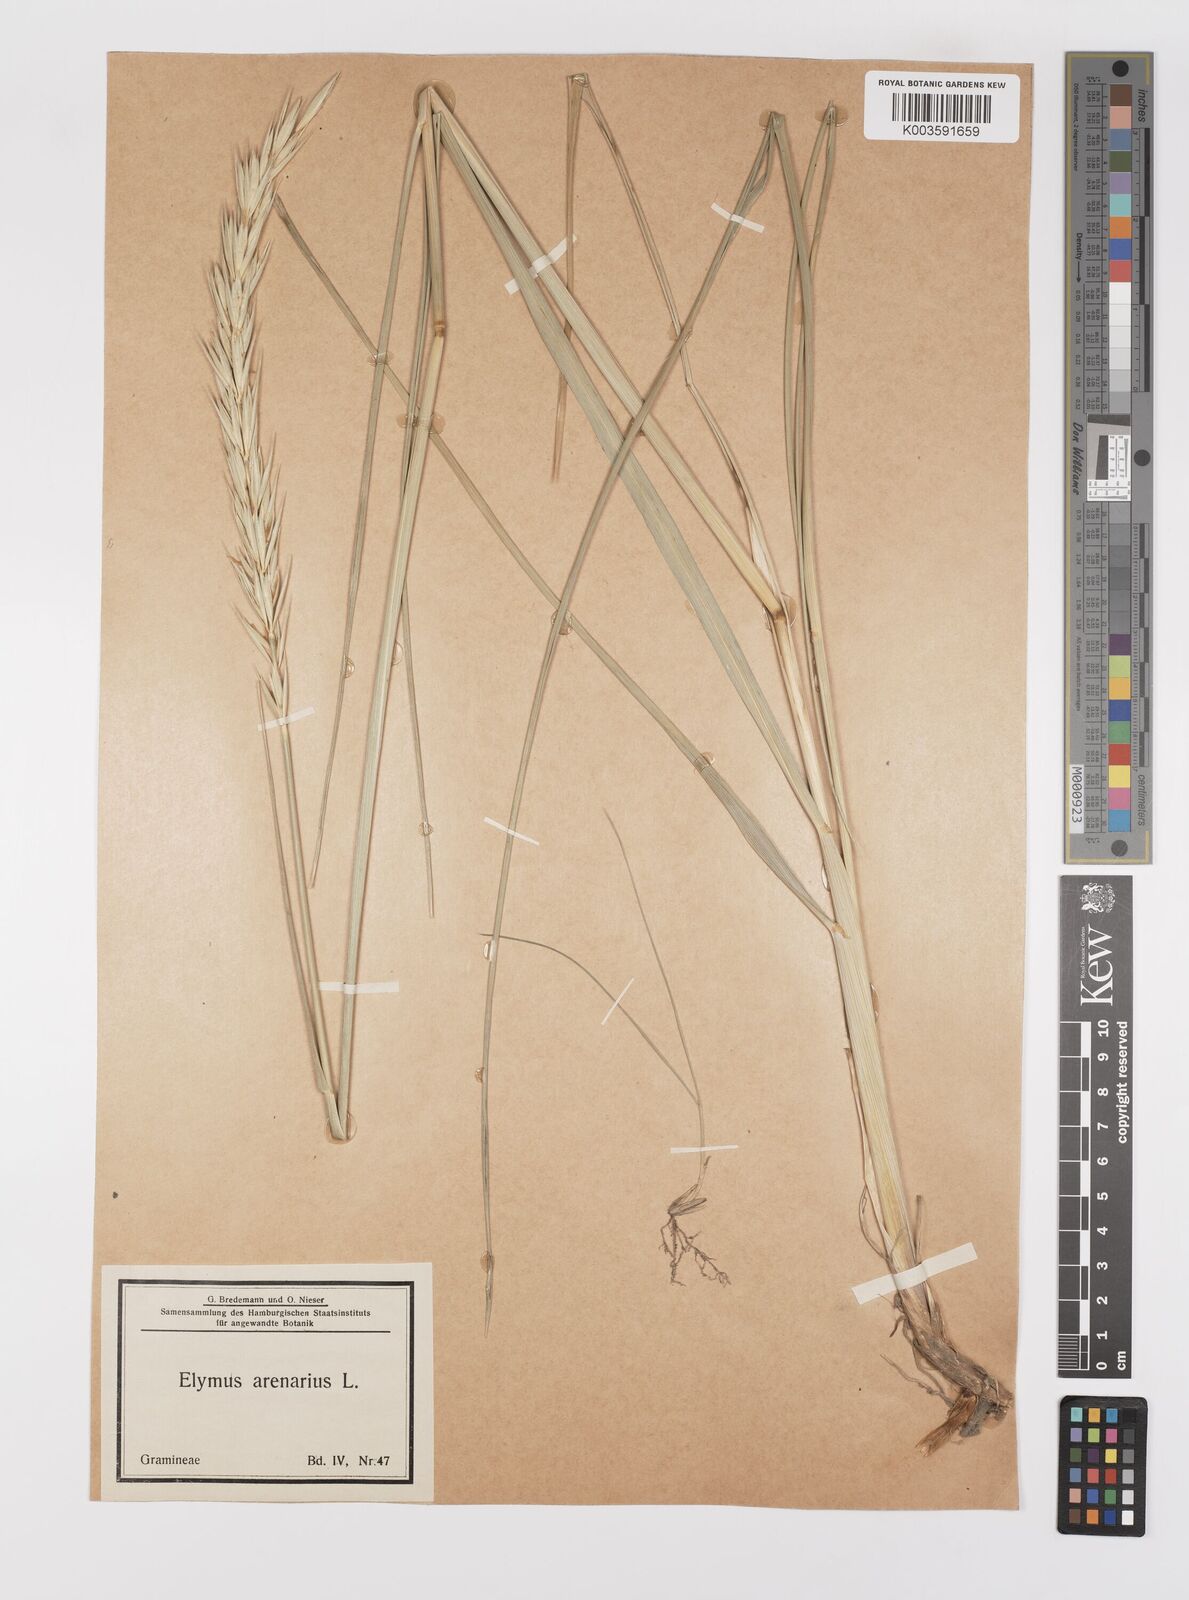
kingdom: Plantae
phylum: Tracheophyta
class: Liliopsida
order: Poales
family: Poaceae
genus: Leymus
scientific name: Leymus arenarius
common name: Lyme-grass
